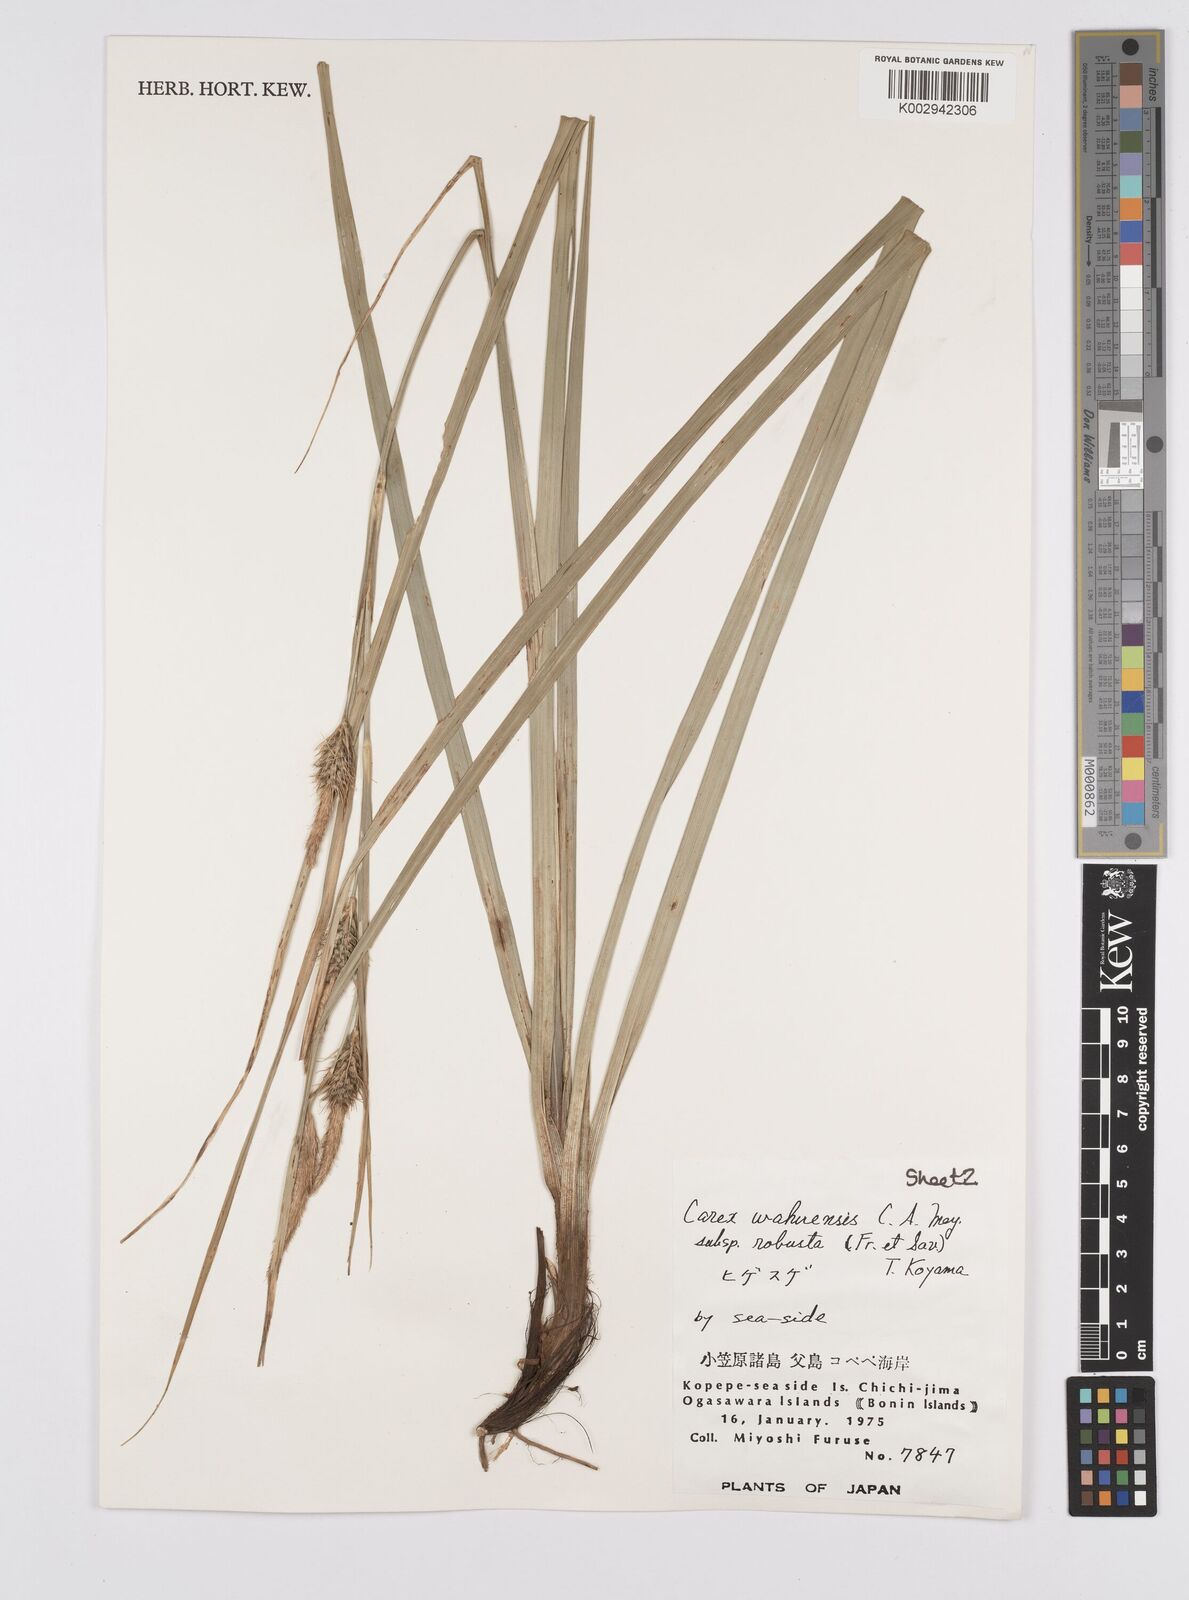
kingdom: Plantae
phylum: Tracheophyta
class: Liliopsida
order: Poales
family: Cyperaceae
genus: Carex
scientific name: Carex wahuensis
